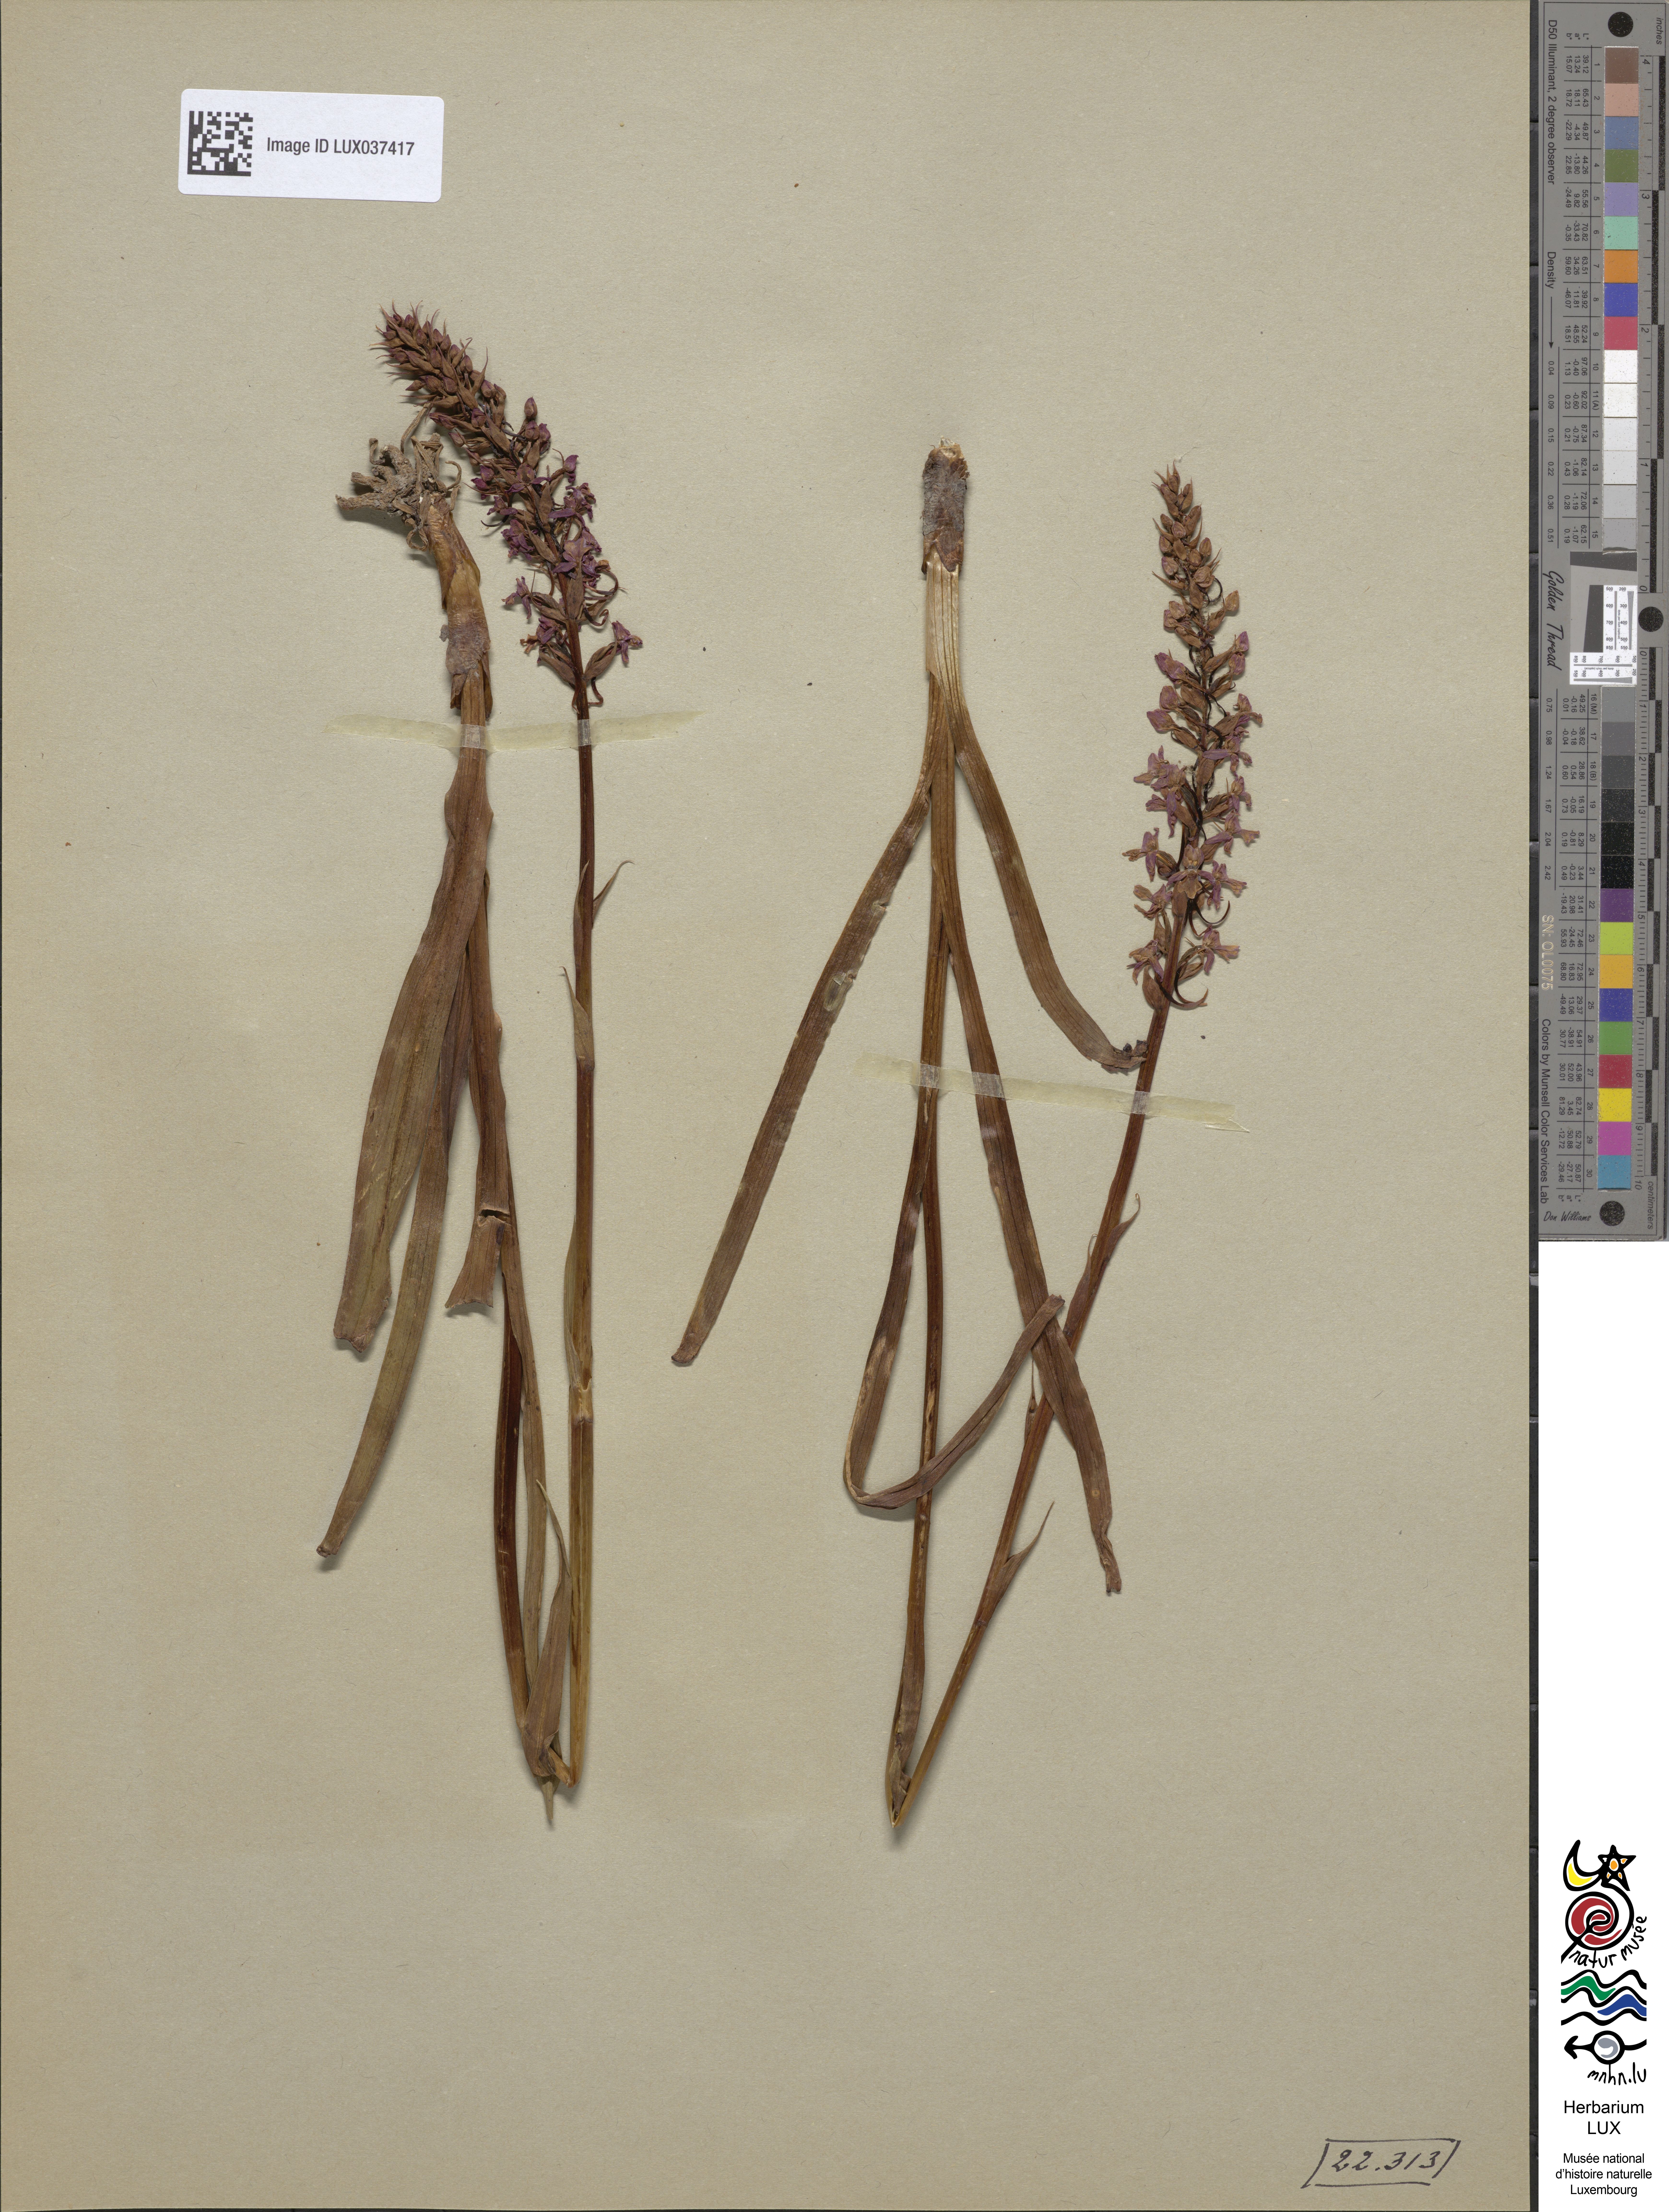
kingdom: Plantae
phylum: Tracheophyta
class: Liliopsida
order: Asparagales
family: Orchidaceae
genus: Gymnadenia
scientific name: Gymnadenia conopsea
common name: Fragrant orchid
